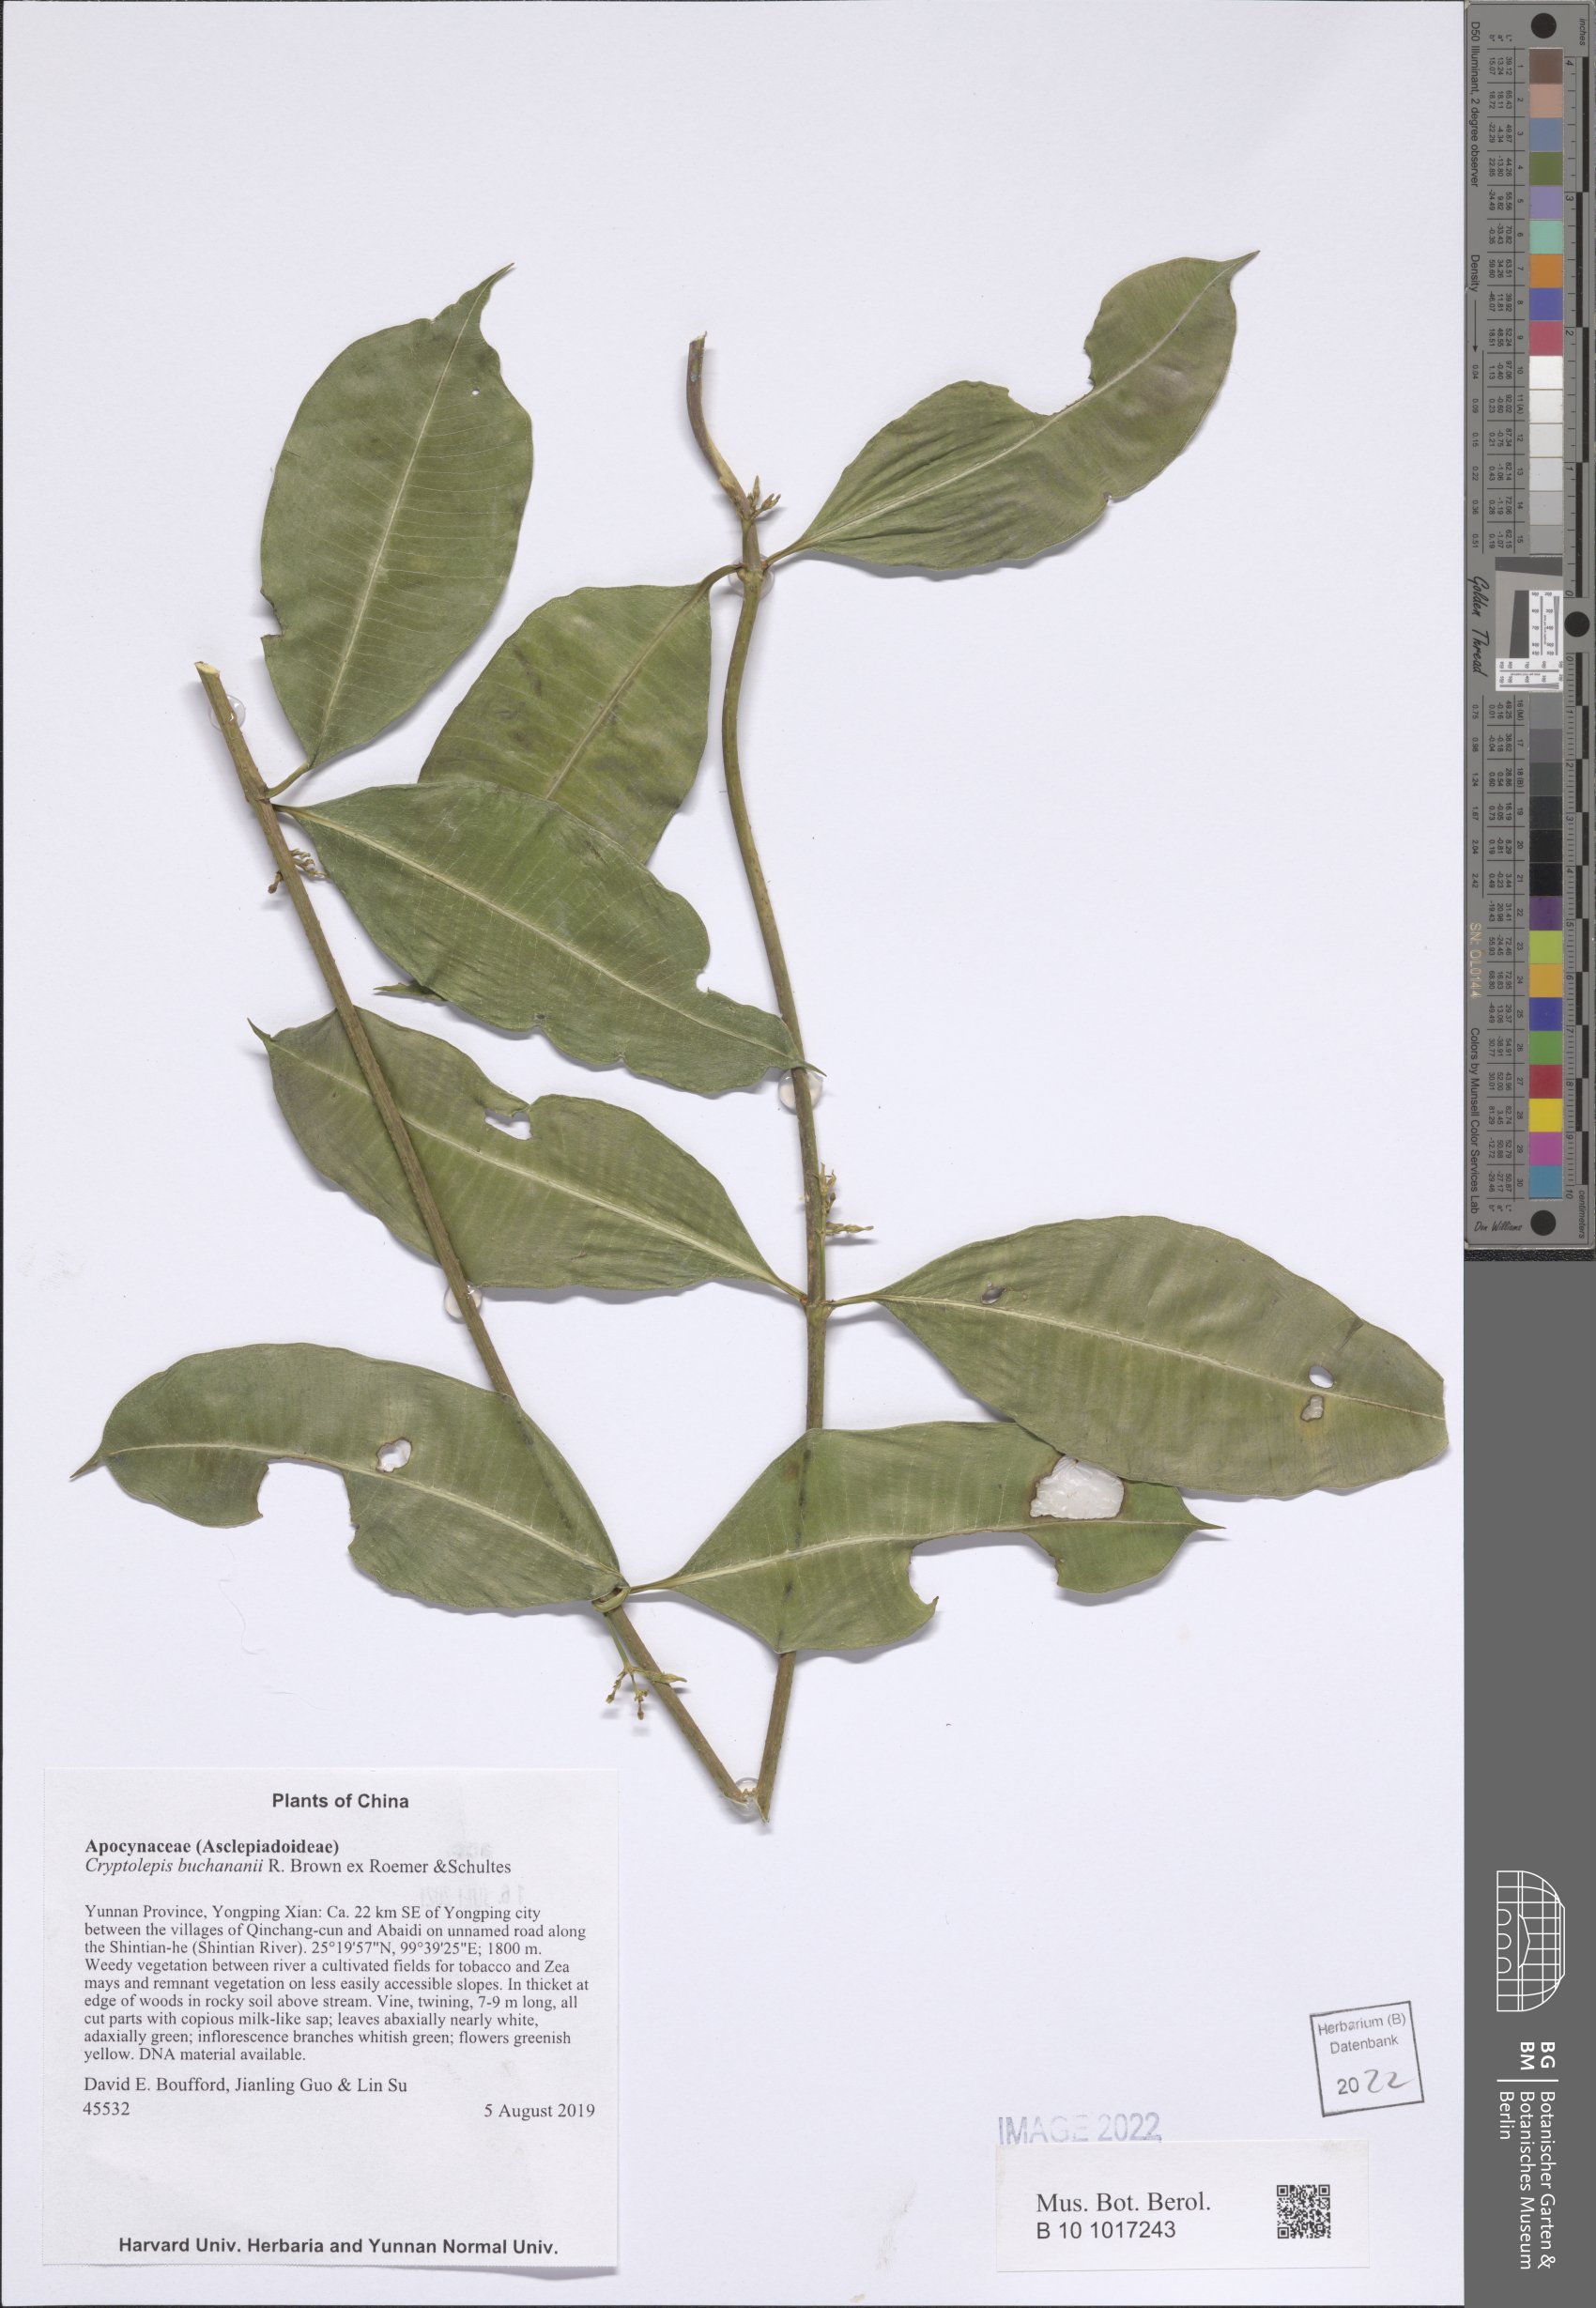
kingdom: Plantae
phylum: Tracheophyta
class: Magnoliopsida
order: Gentianales
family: Apocynaceae
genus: Cryptolepis
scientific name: Cryptolepis buchananii
